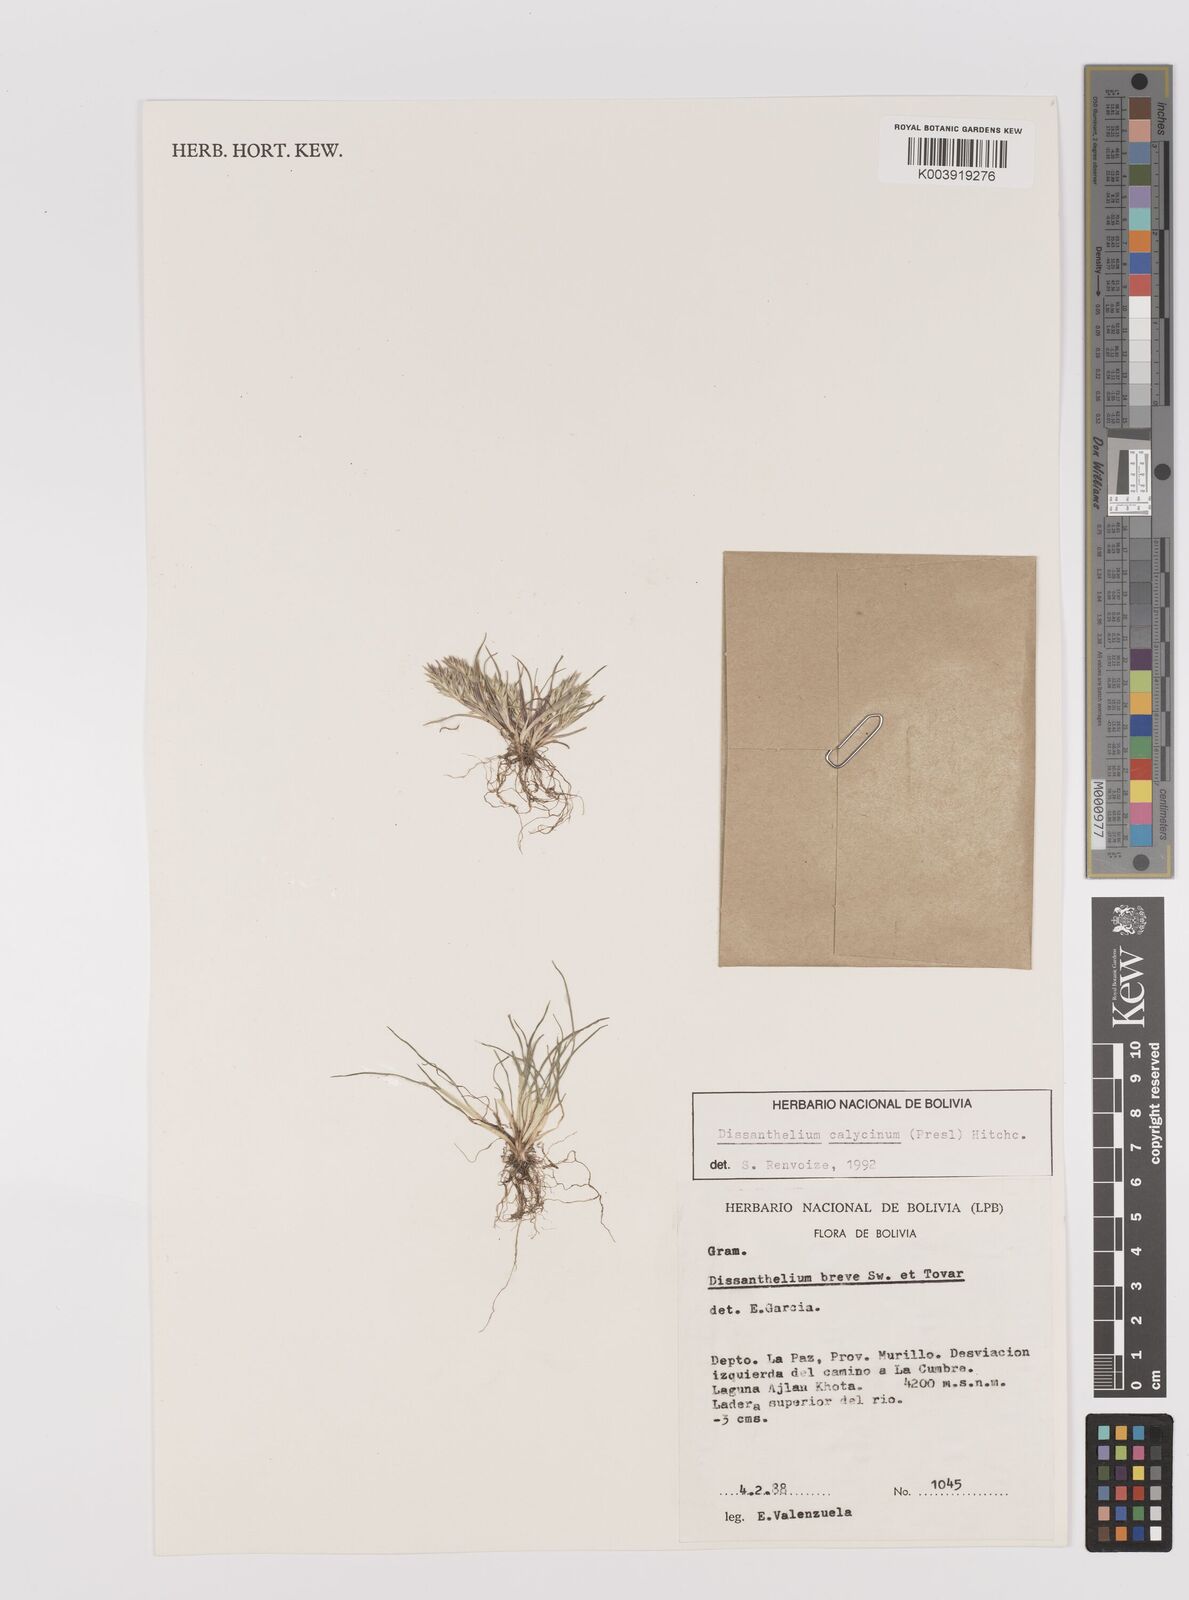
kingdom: Plantae
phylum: Tracheophyta
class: Liliopsida
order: Poales
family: Poaceae
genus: Poa
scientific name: Poa calycina
